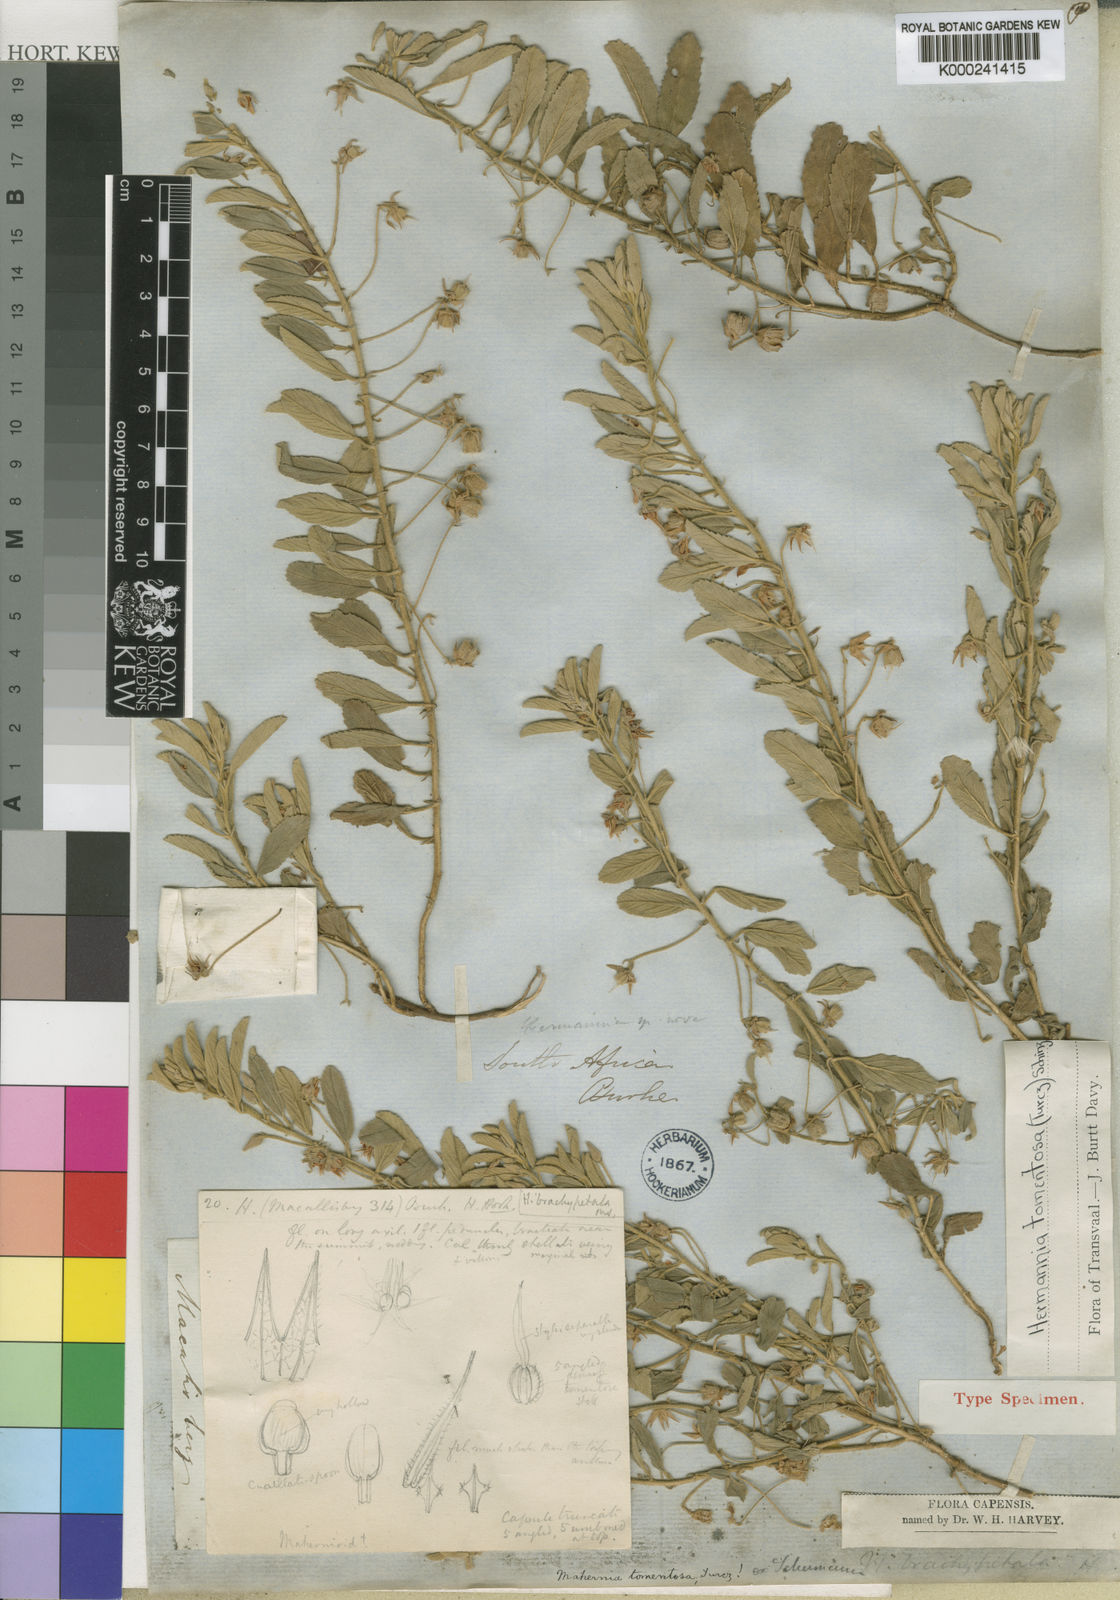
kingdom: Plantae
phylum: Tracheophyta
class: Magnoliopsida
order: Malvales
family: Malvaceae
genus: Hermannia
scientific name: Hermannia tomentosa
